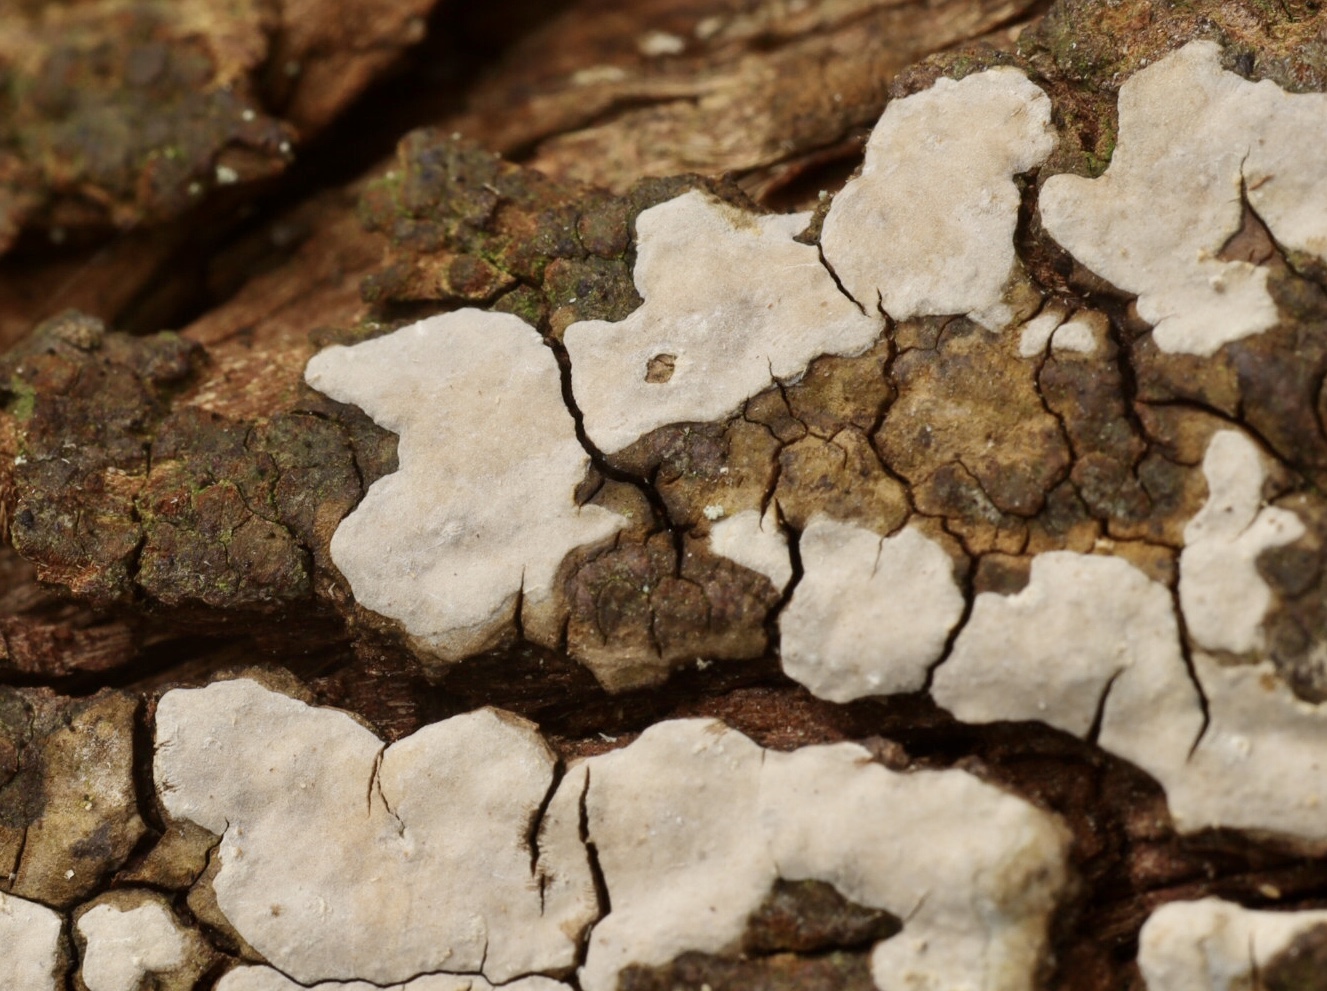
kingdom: Fungi
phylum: Basidiomycota
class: Agaricomycetes
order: Russulales
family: Echinodontiaceae
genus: Amylostereum
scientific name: Amylostereum laevigatum
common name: ene-lædersvamp
